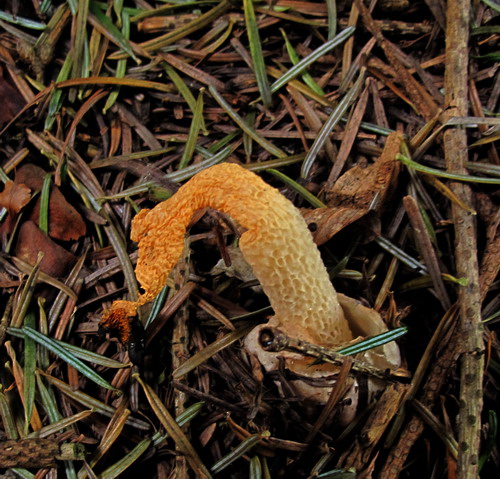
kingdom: Fungi
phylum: Basidiomycota
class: Agaricomycetes
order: Phallales
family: Phallaceae
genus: Mutinus
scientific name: Mutinus caninus
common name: hunde-stinksvamp
